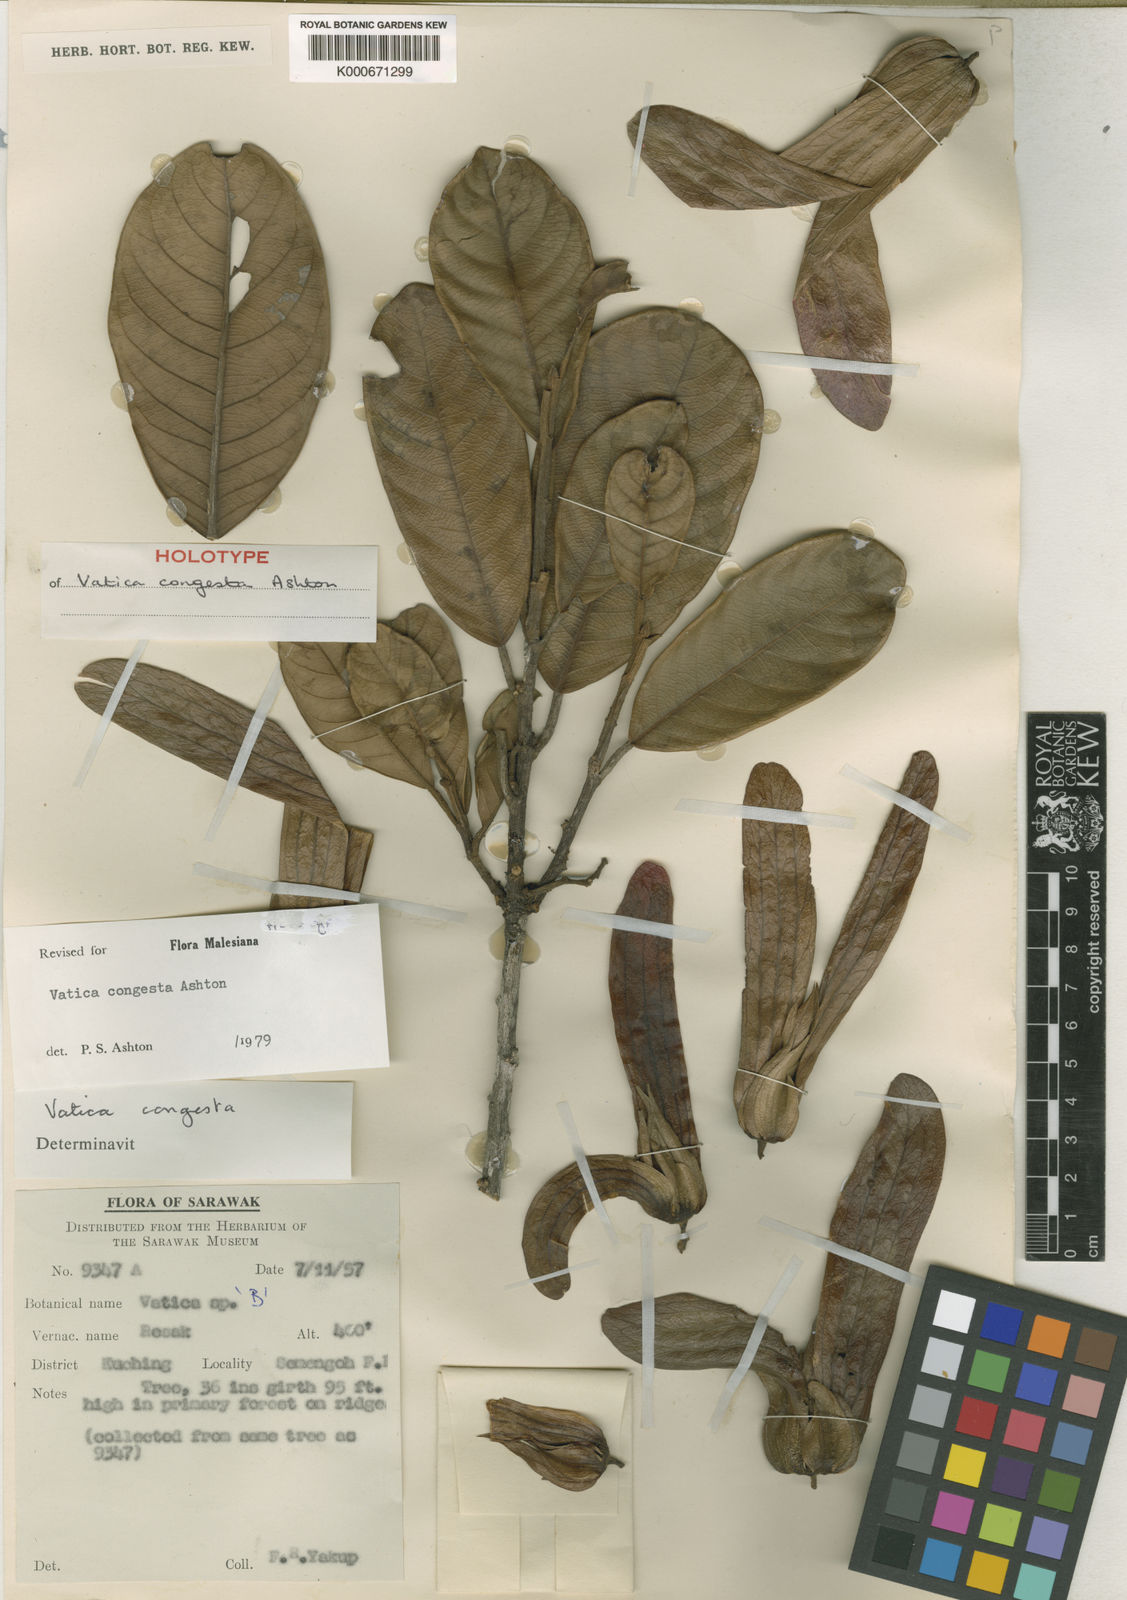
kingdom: Plantae
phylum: Tracheophyta
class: Magnoliopsida
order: Malvales
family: Dipterocarpaceae
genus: Vatica
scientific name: Vatica congesta
